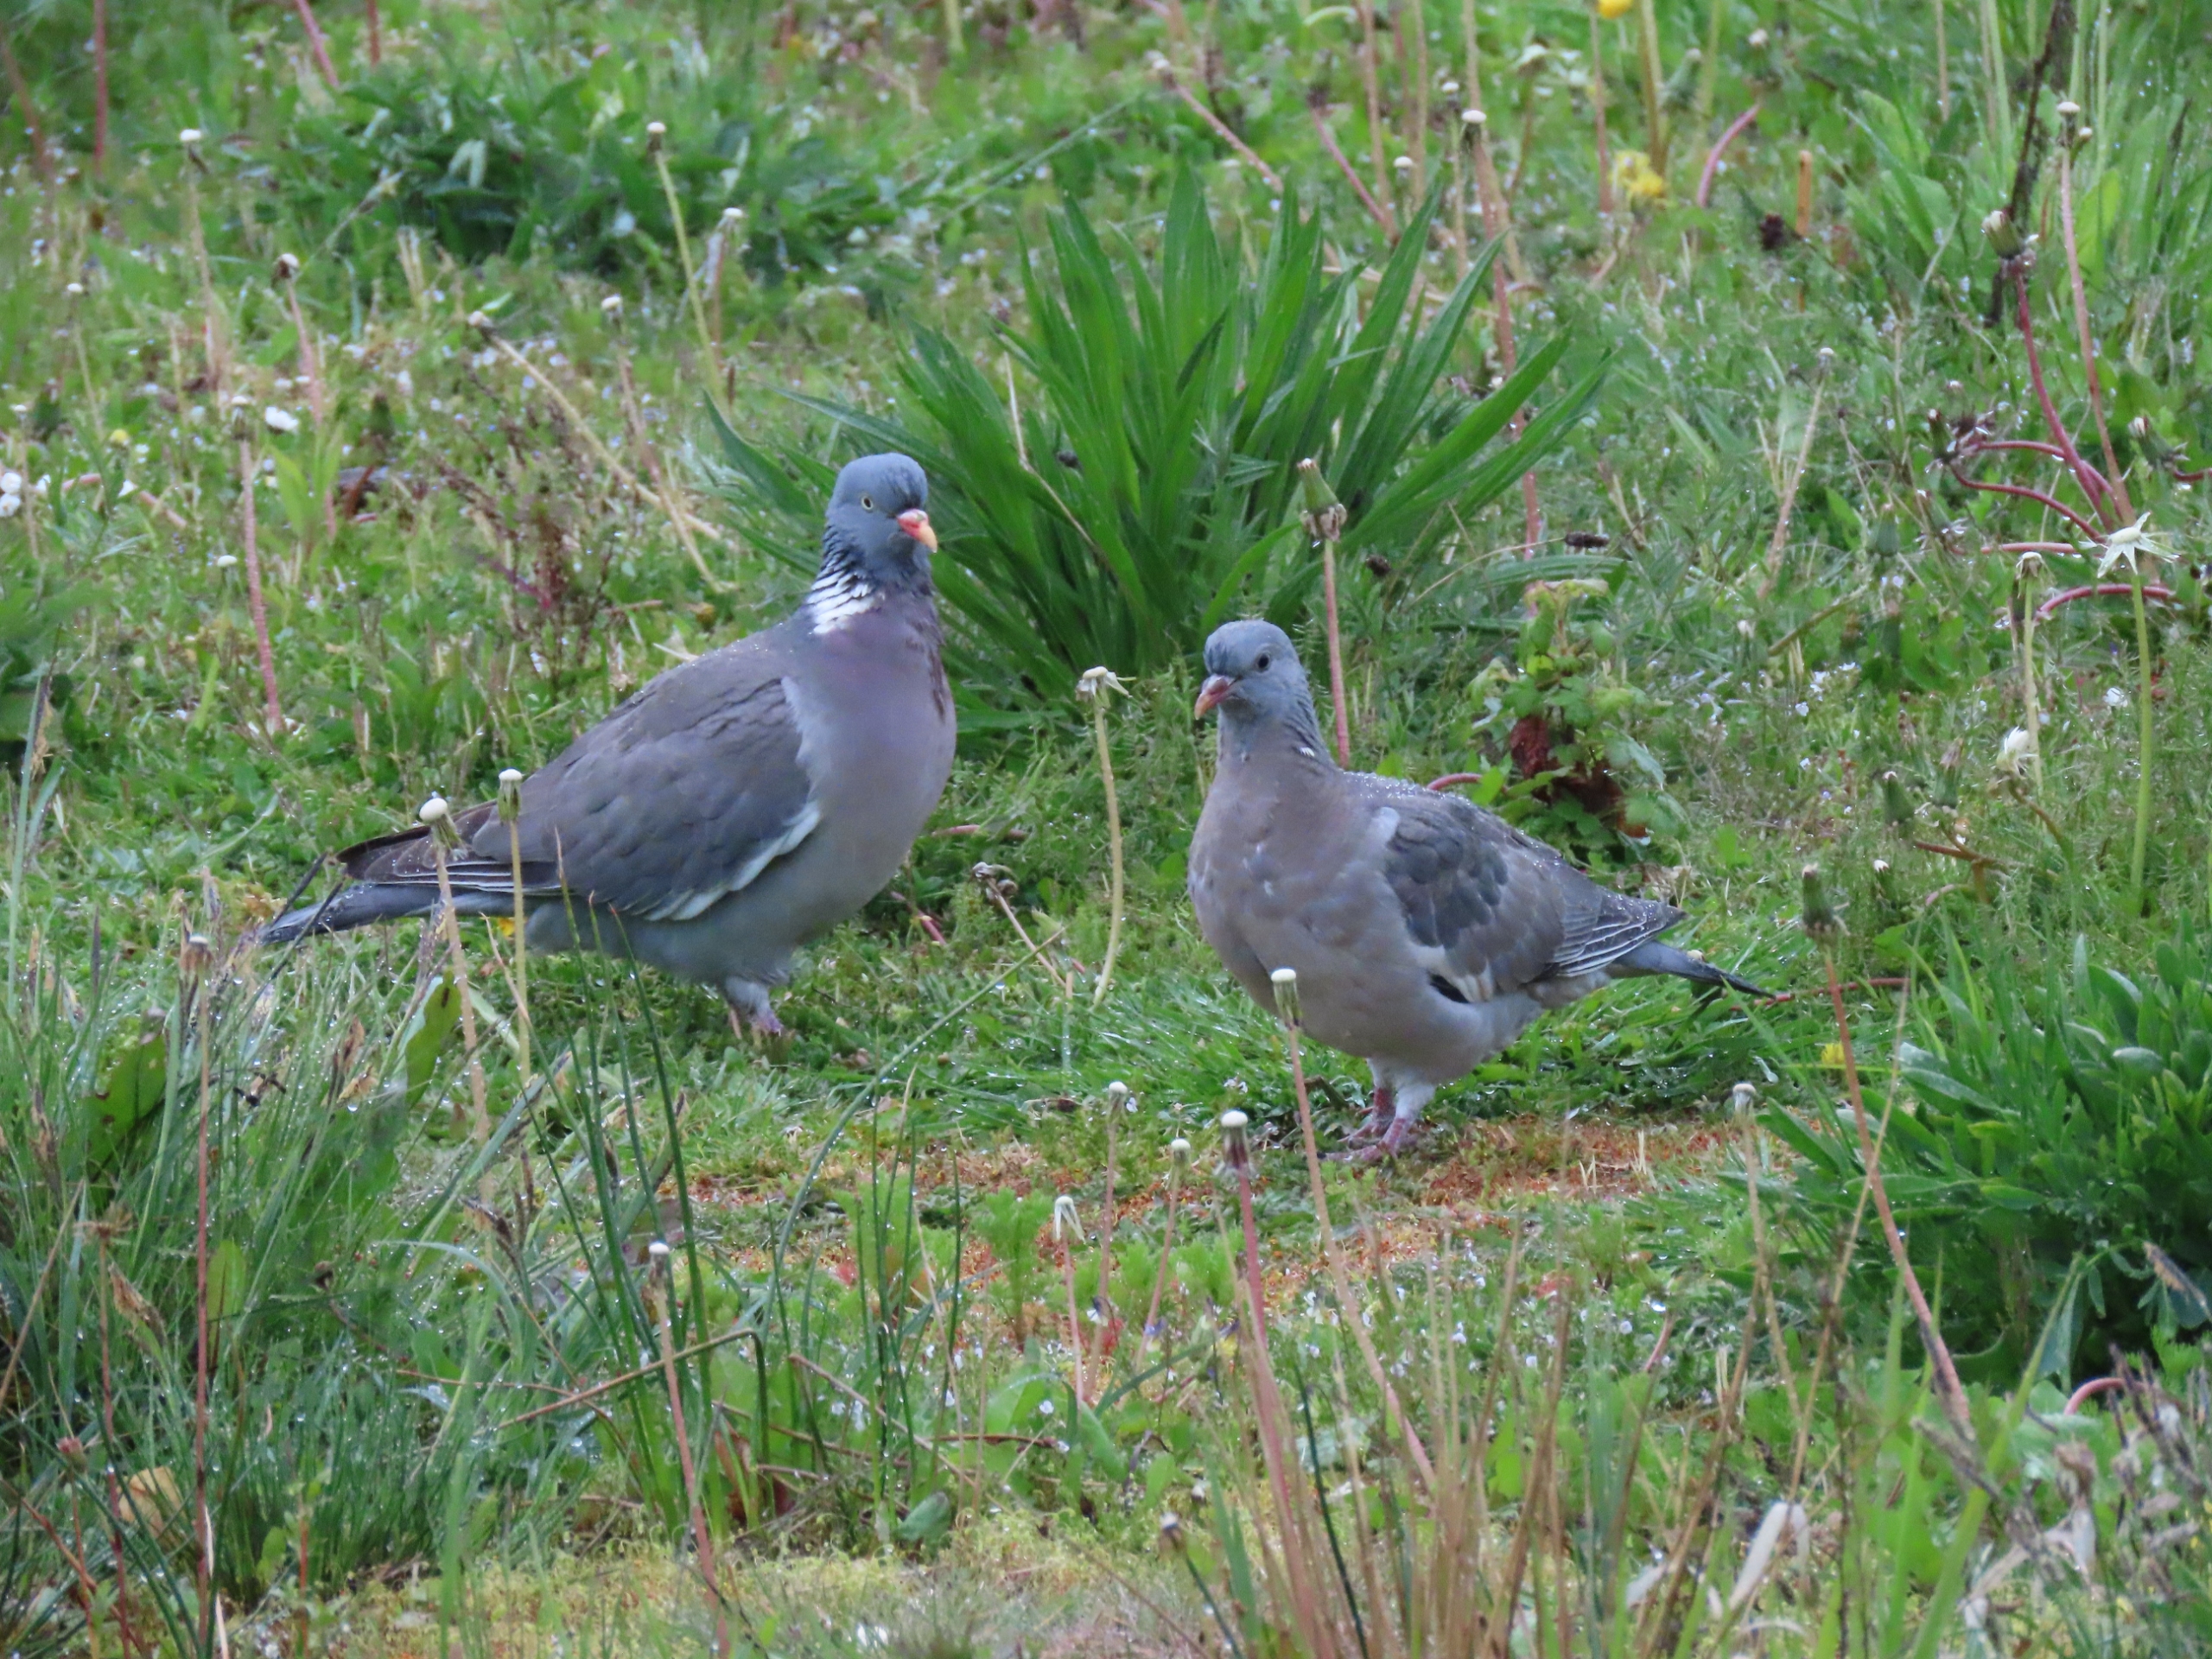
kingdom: Animalia
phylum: Chordata
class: Aves
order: Columbiformes
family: Columbidae
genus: Columba
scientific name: Columba palumbus
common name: Ringdue
